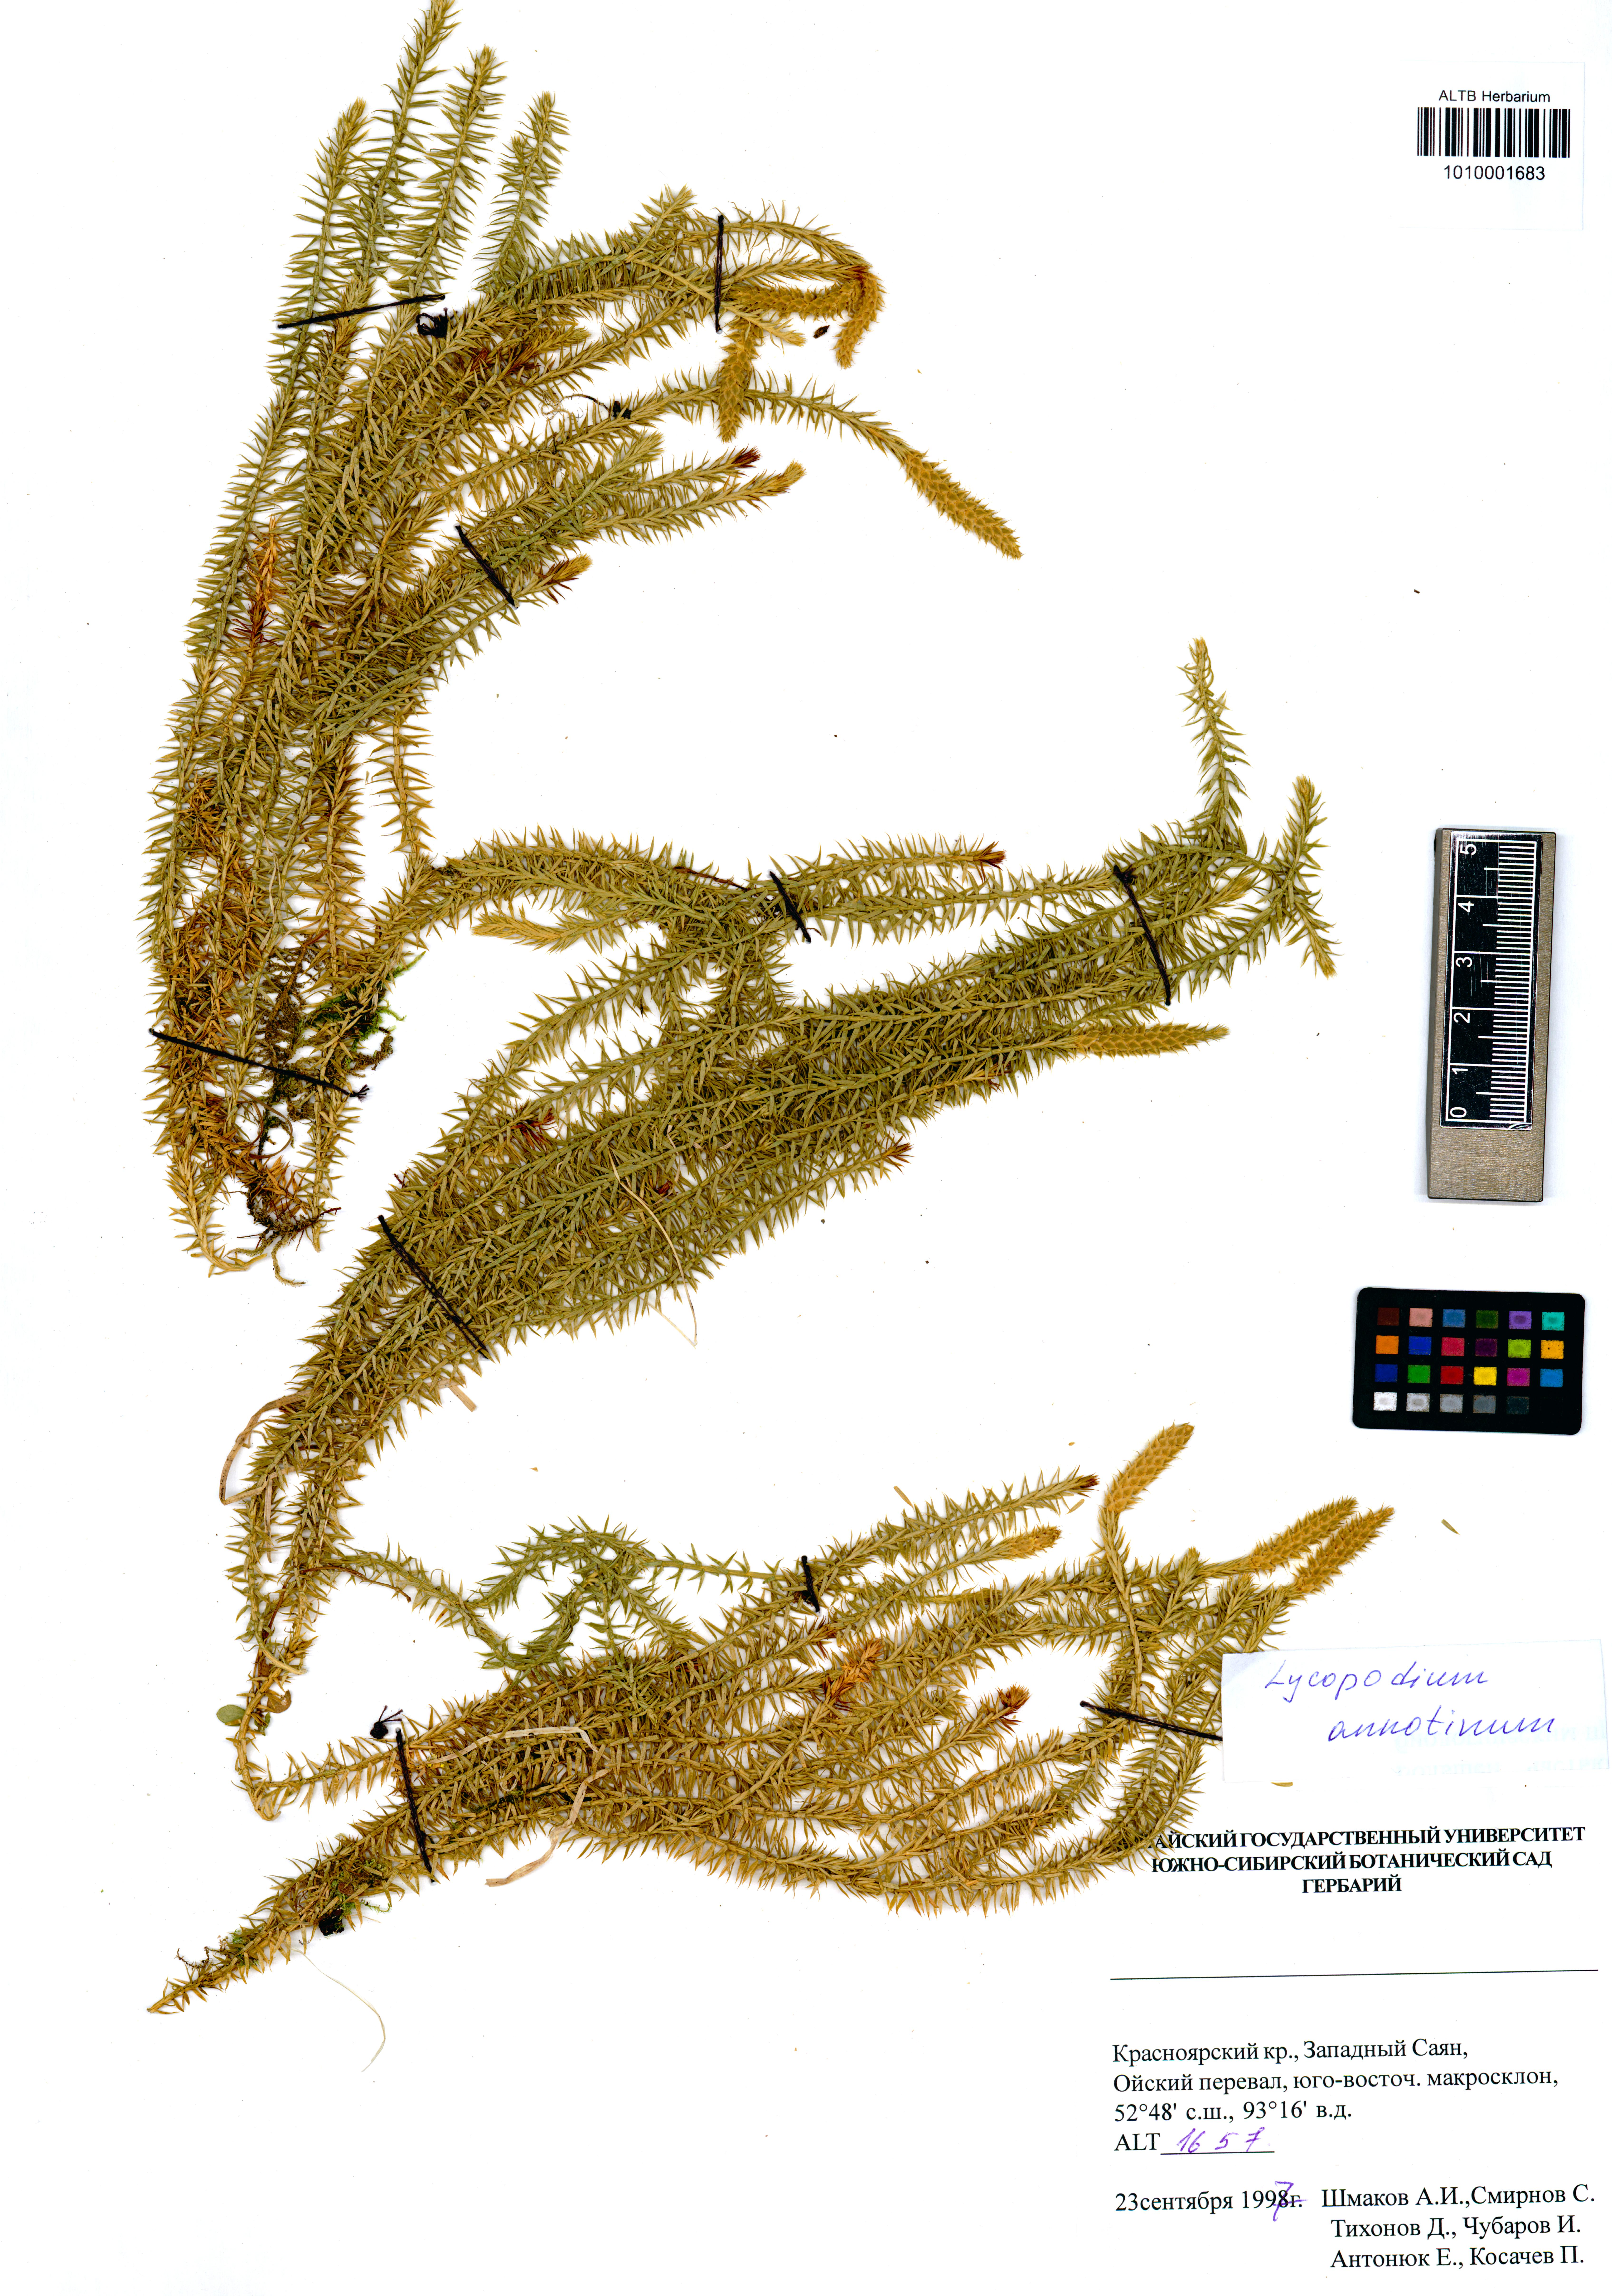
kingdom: Plantae
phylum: Tracheophyta
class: Lycopodiopsida
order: Lycopodiales
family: Lycopodiaceae
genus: Spinulum
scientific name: Spinulum annotinum
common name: Interrupted club-moss
